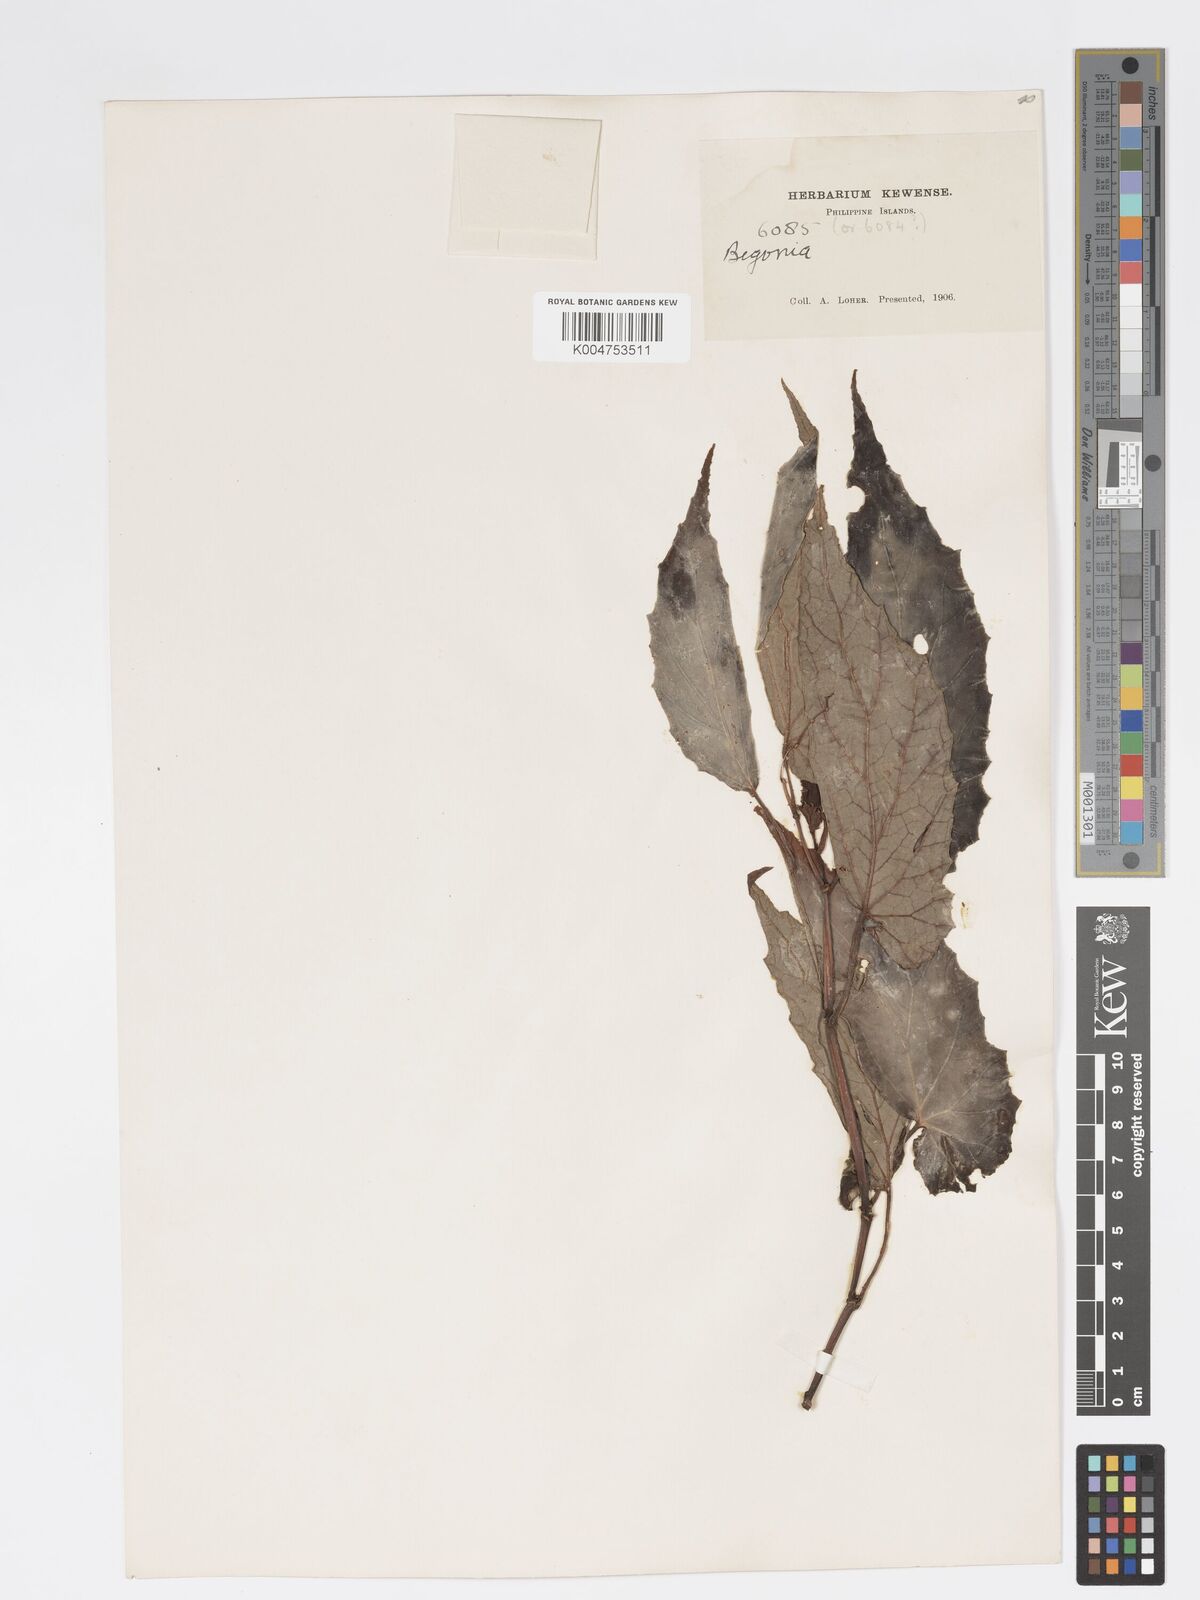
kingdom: Plantae
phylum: Tracheophyta
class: Magnoliopsida
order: Cucurbitales
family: Begoniaceae
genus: Begonia
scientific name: Begonia
